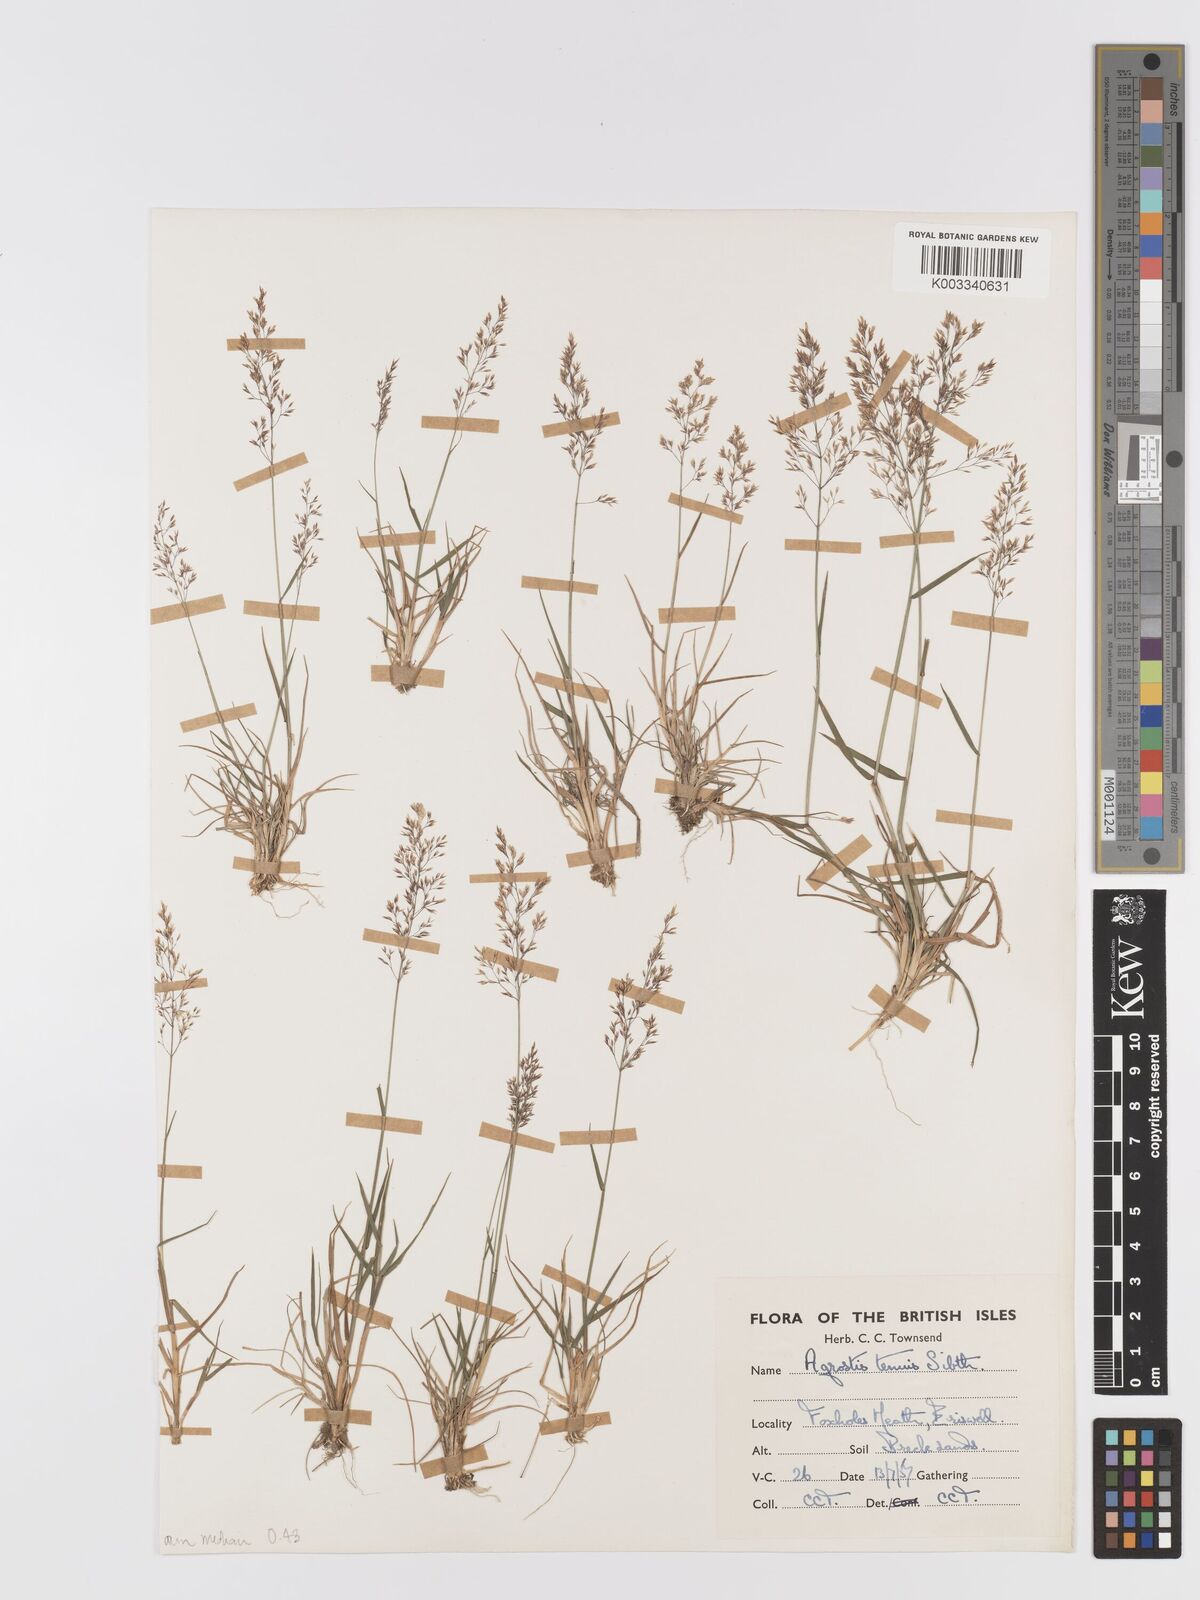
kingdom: Plantae
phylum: Tracheophyta
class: Liliopsida
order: Poales
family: Poaceae
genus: Agrostis
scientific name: Agrostis capillaris
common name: Colonial bentgrass
